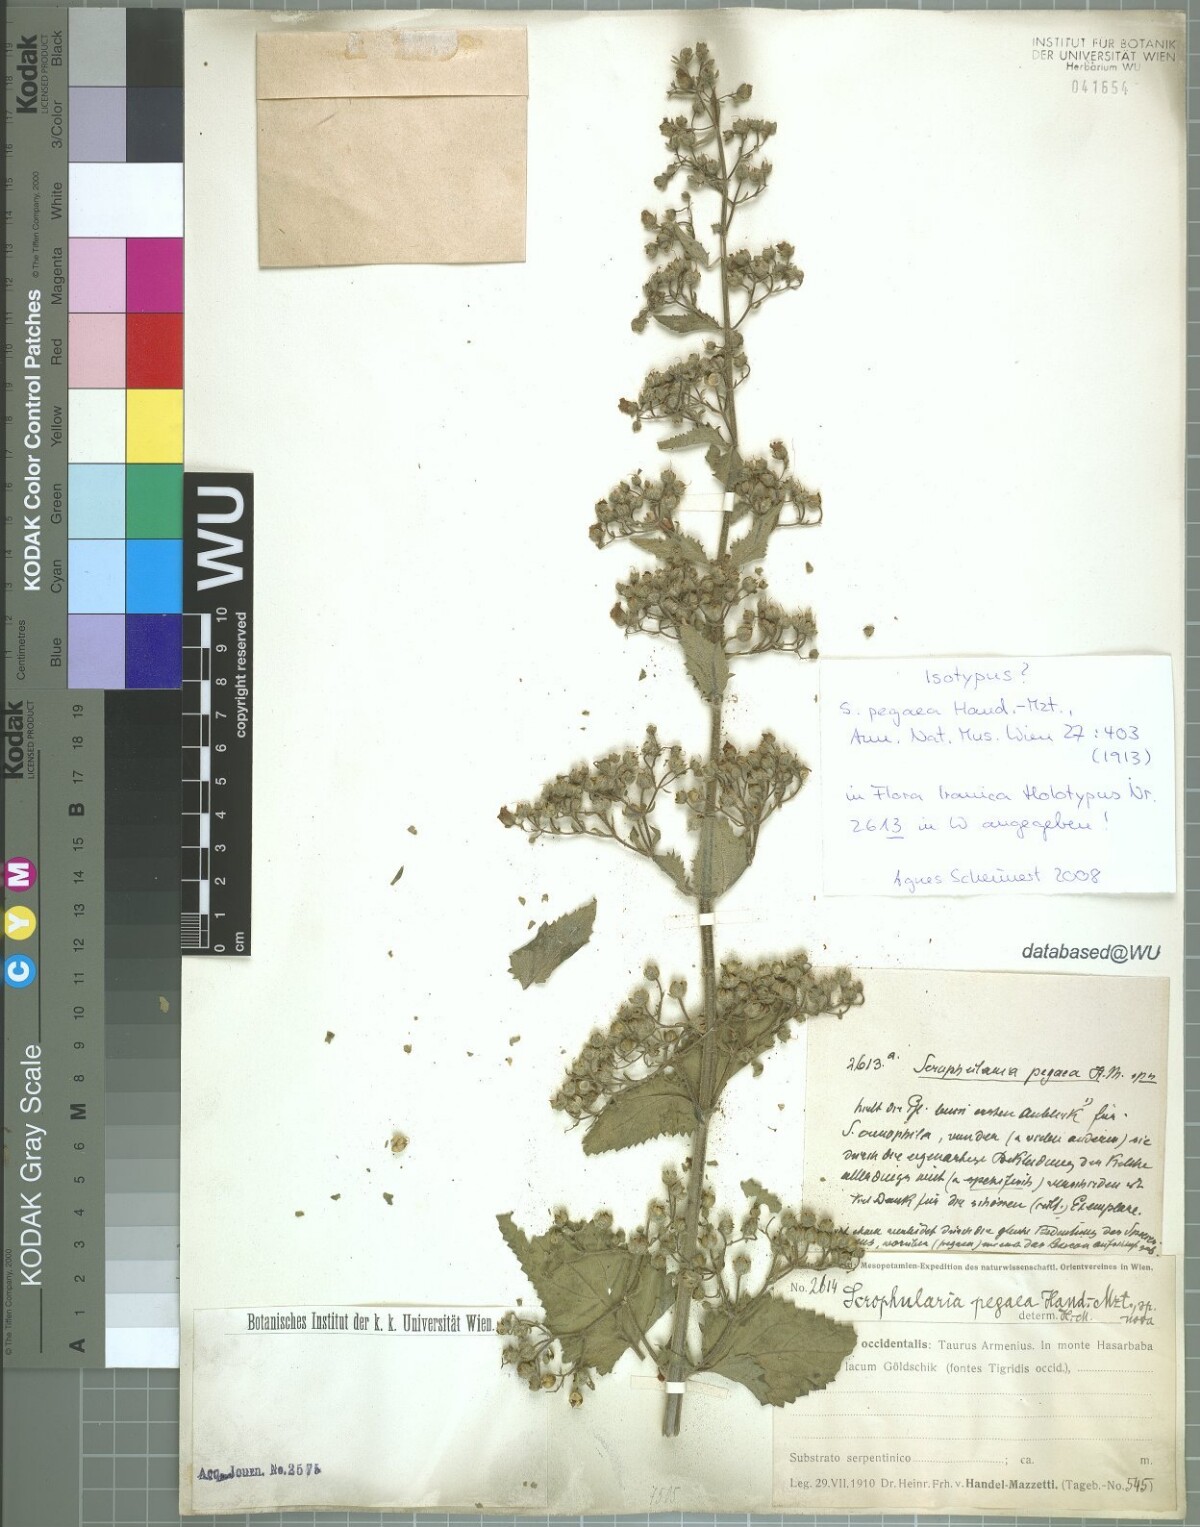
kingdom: Plantae
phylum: Tracheophyta
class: Magnoliopsida
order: Lamiales
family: Scrophulariaceae
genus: Scrophularia
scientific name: Scrophularia pegaea
